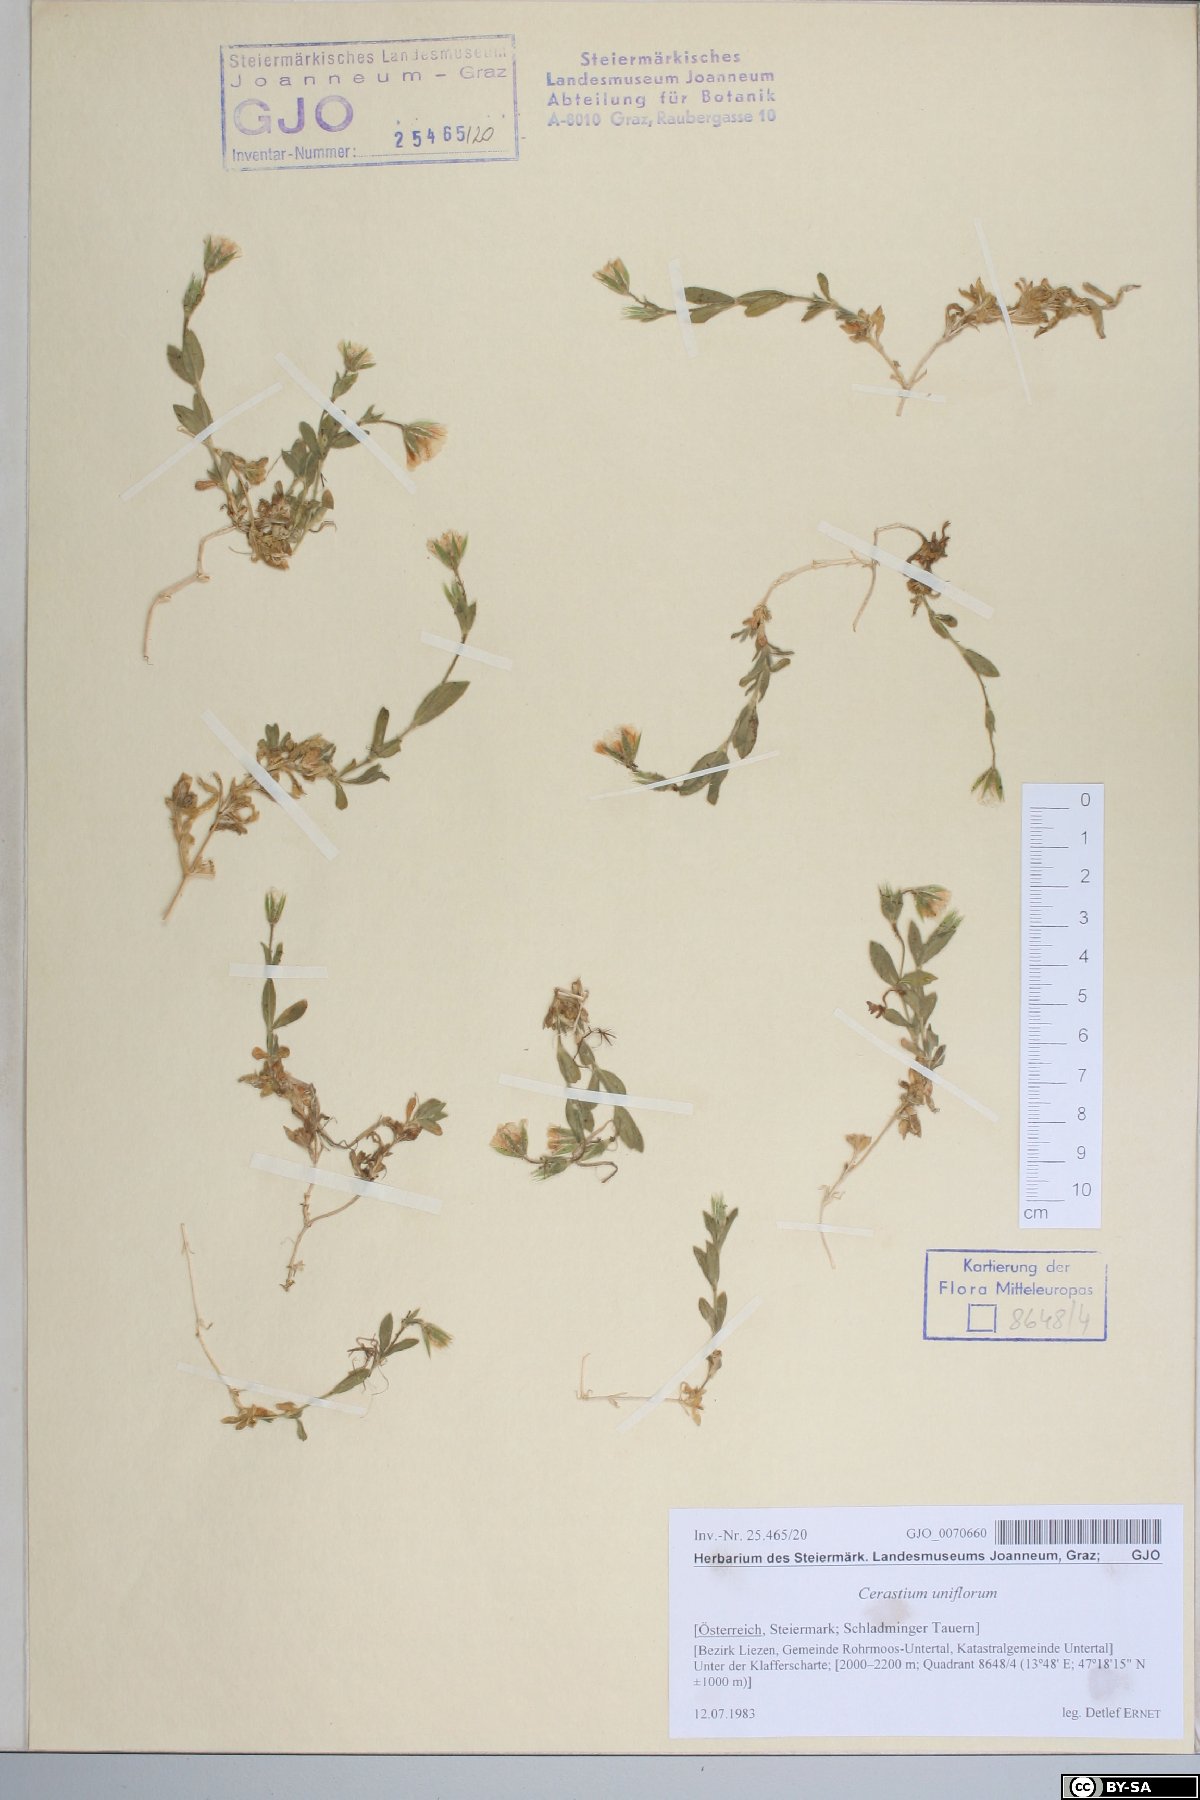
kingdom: Plantae
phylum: Tracheophyta
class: Magnoliopsida
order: Caryophyllales
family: Caryophyllaceae
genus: Cerastium
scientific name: Cerastium uniflorum
